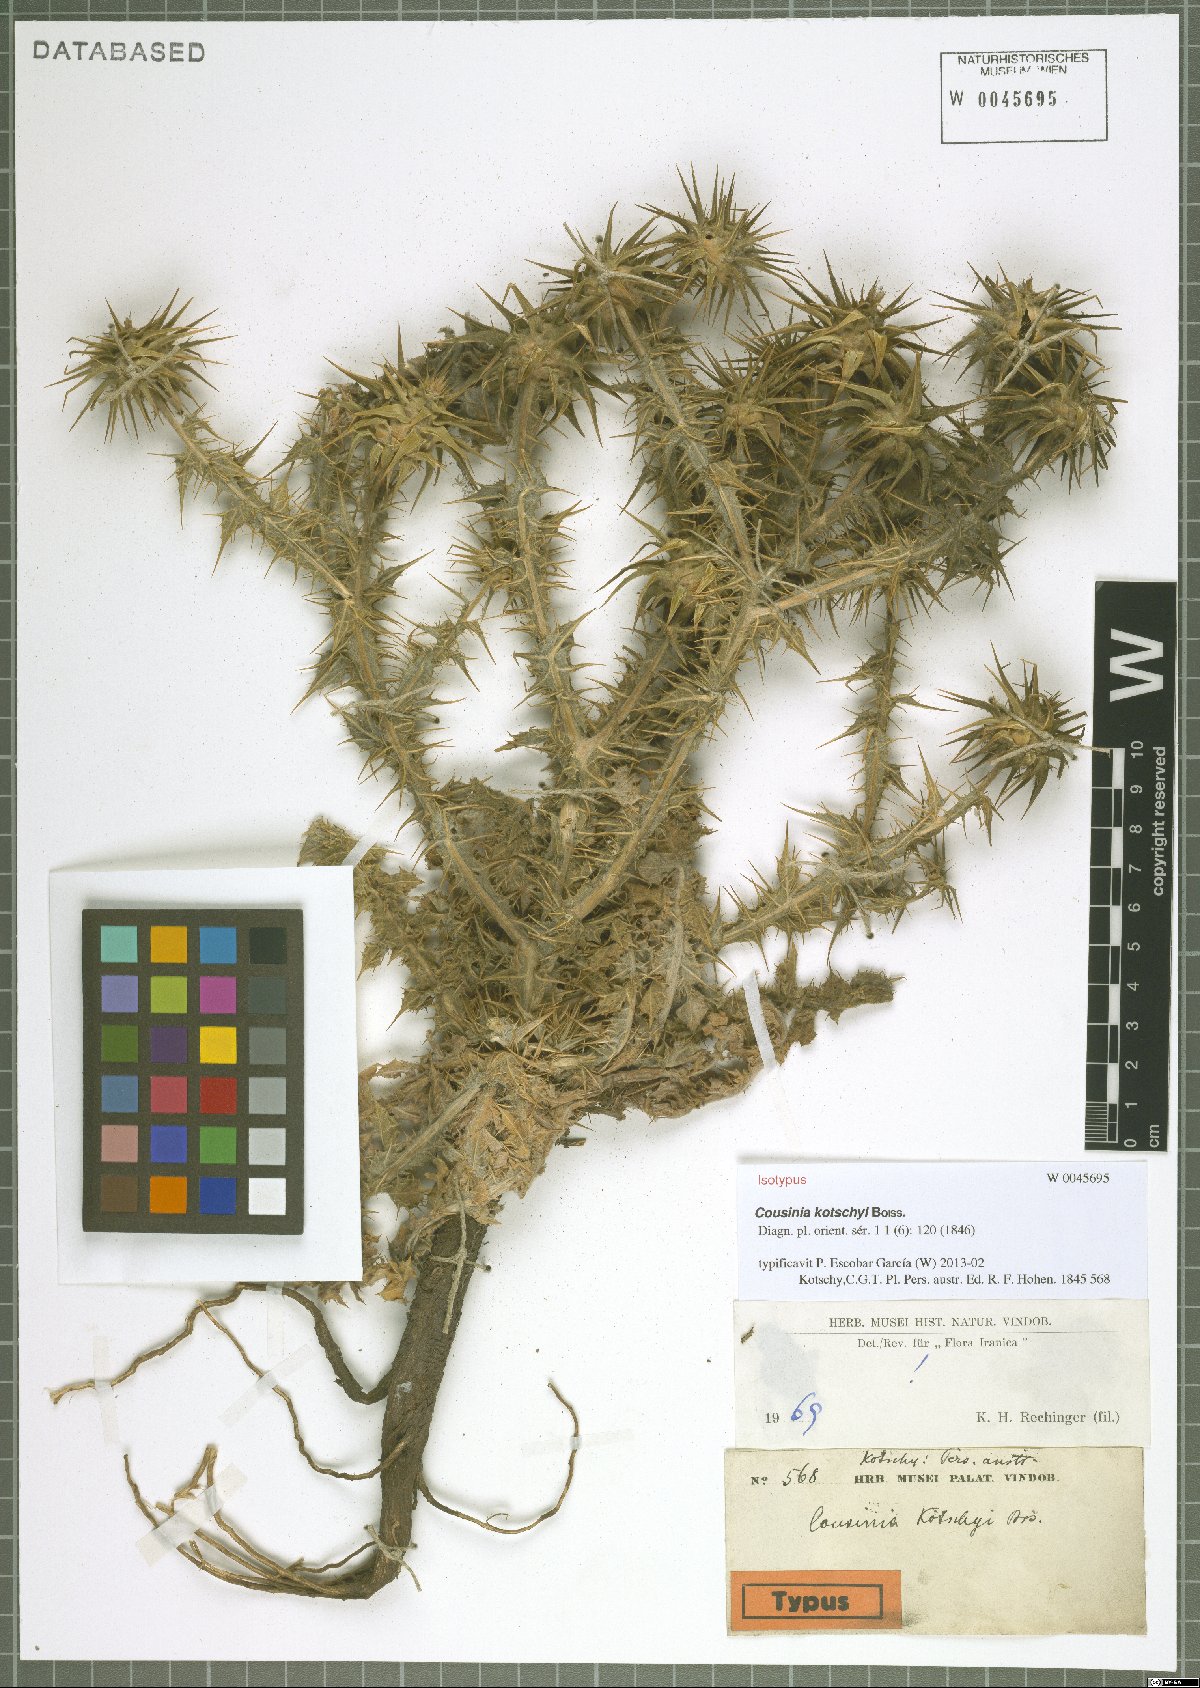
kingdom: Plantae
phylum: Tracheophyta
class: Magnoliopsida
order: Asterales
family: Asteraceae
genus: Cousinia
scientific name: Cousinia kotschyi
